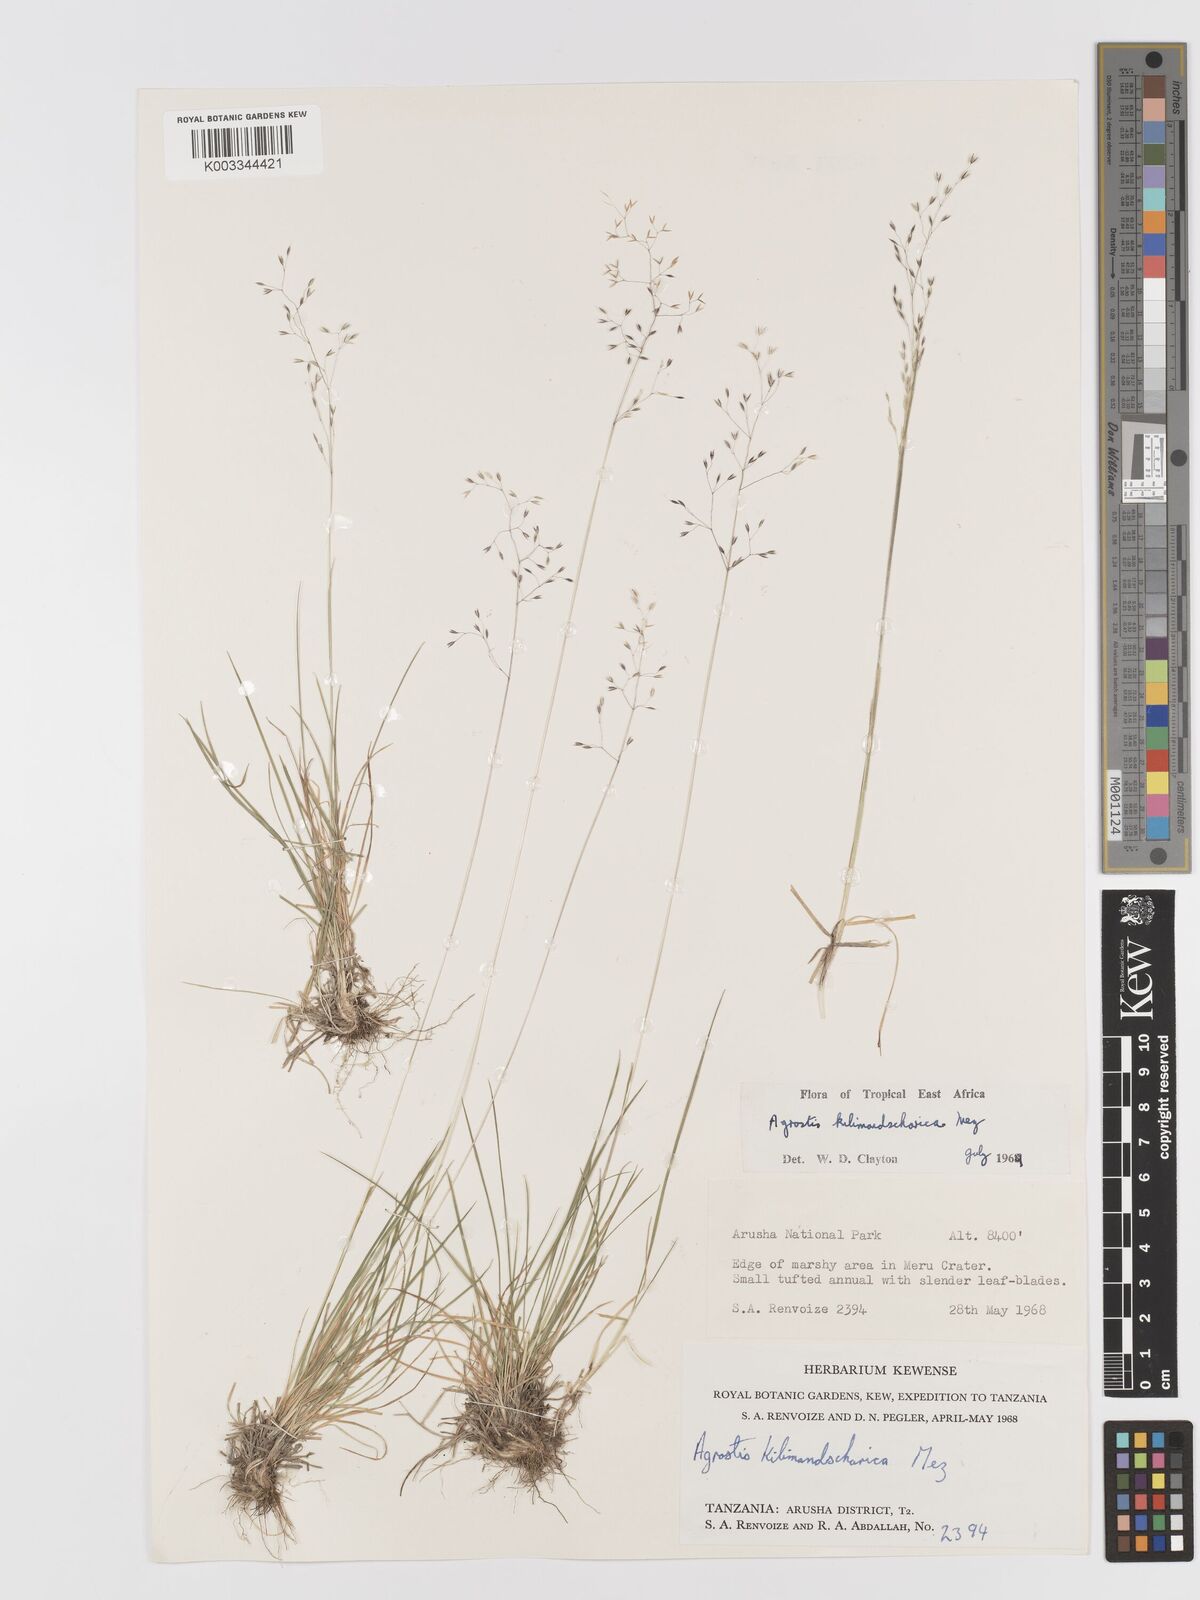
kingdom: Plantae
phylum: Tracheophyta
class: Liliopsida
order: Poales
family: Poaceae
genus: Agrostis
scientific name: Agrostis kilimandscharica
